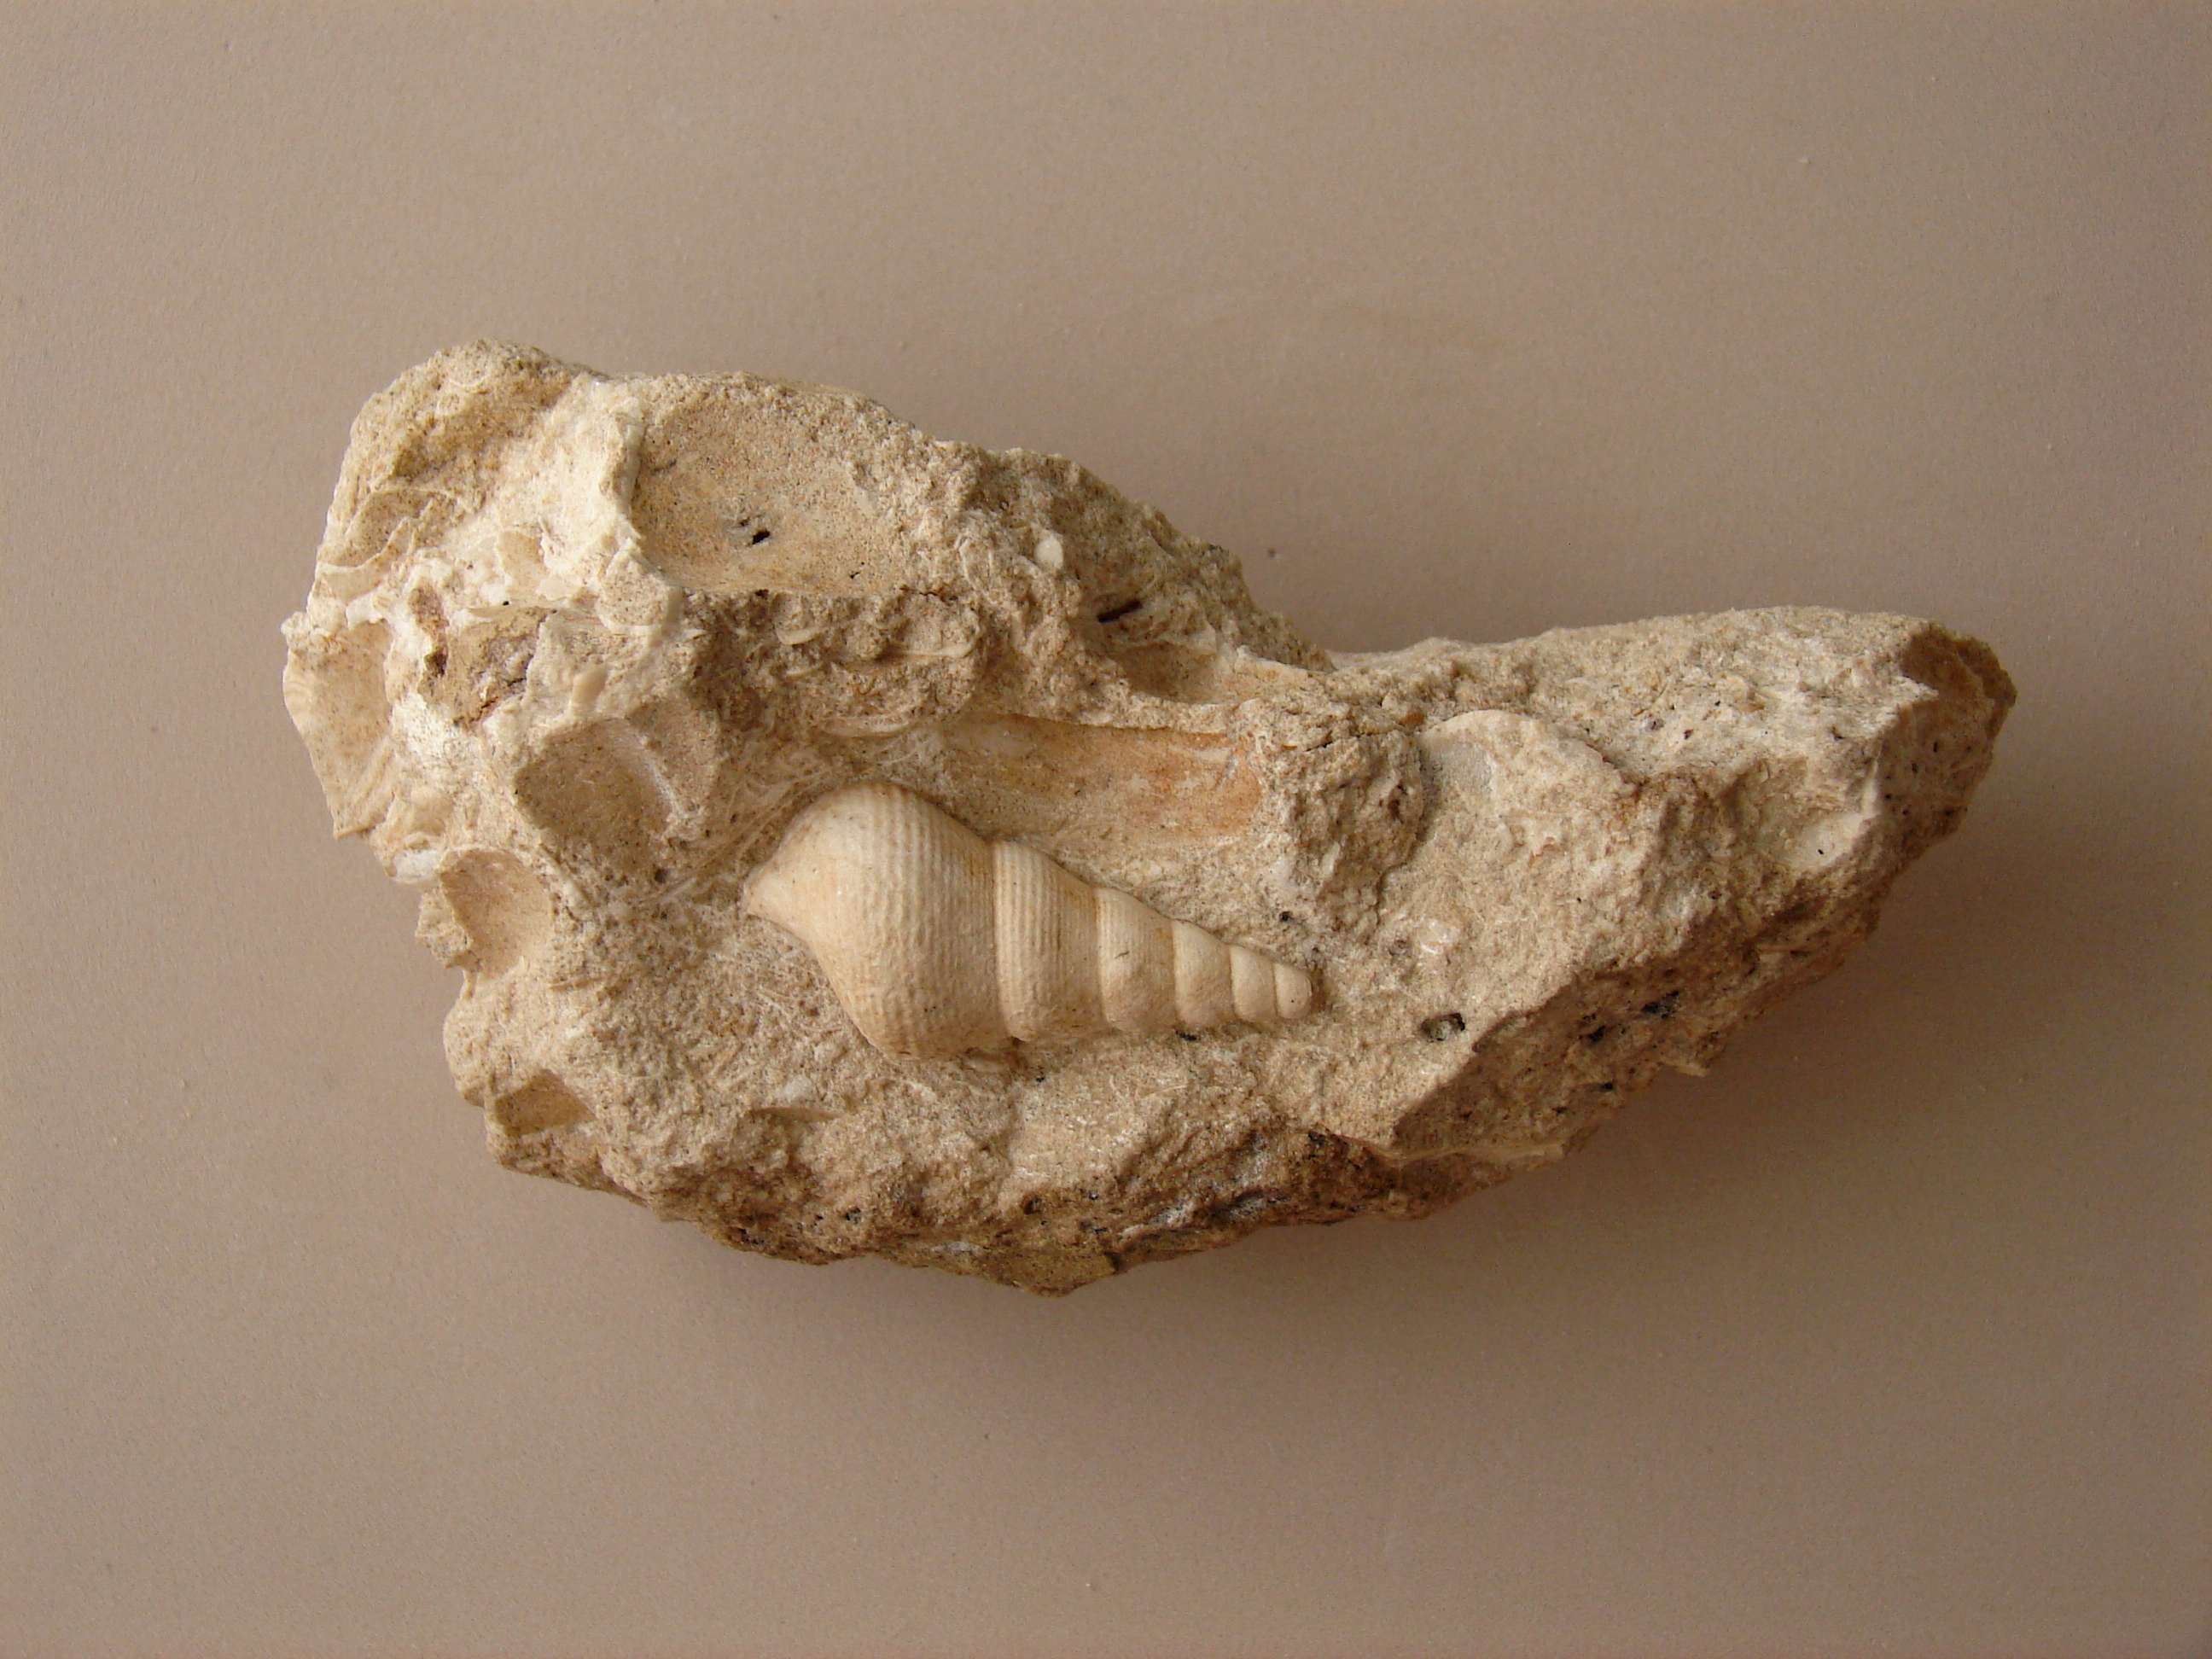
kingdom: Animalia
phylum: Mollusca
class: Gastropoda
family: Pseudomelaniidae
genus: Bourgetia
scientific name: Bourgetia Turritella deshayesea
